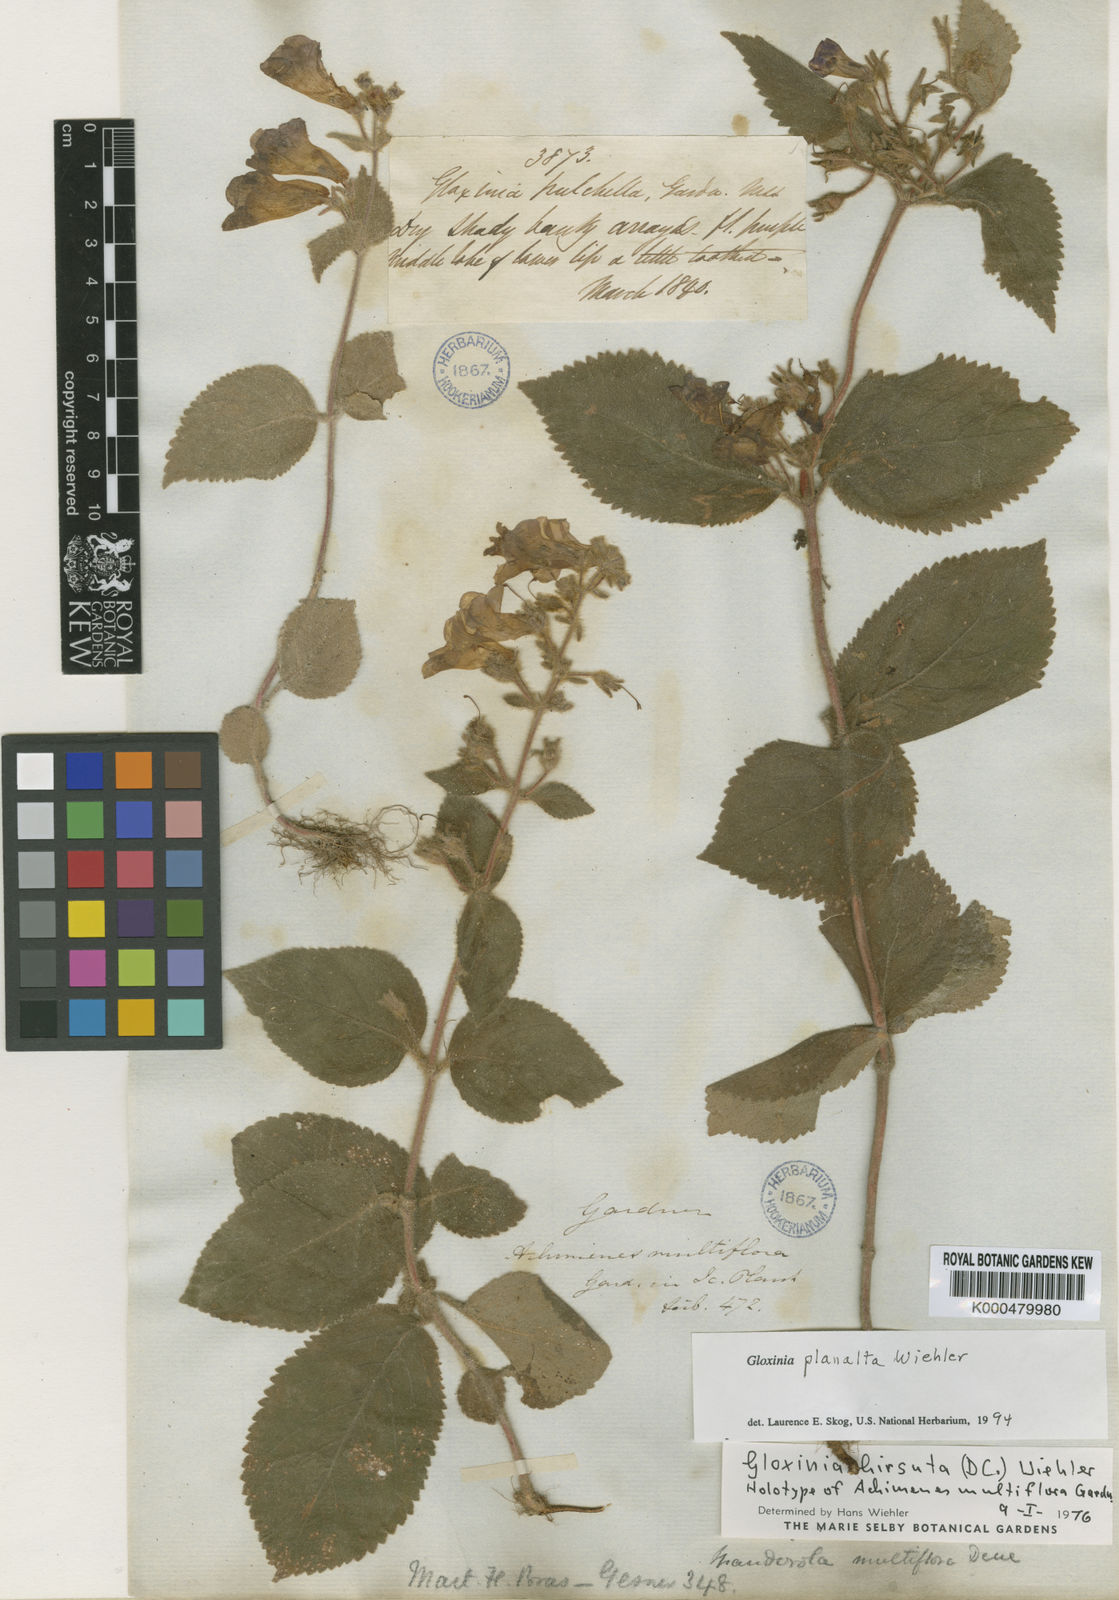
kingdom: Plantae
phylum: Tracheophyta
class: Magnoliopsida
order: Lamiales
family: Gesneriaceae
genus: Mandirola
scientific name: Mandirola hirsuta
